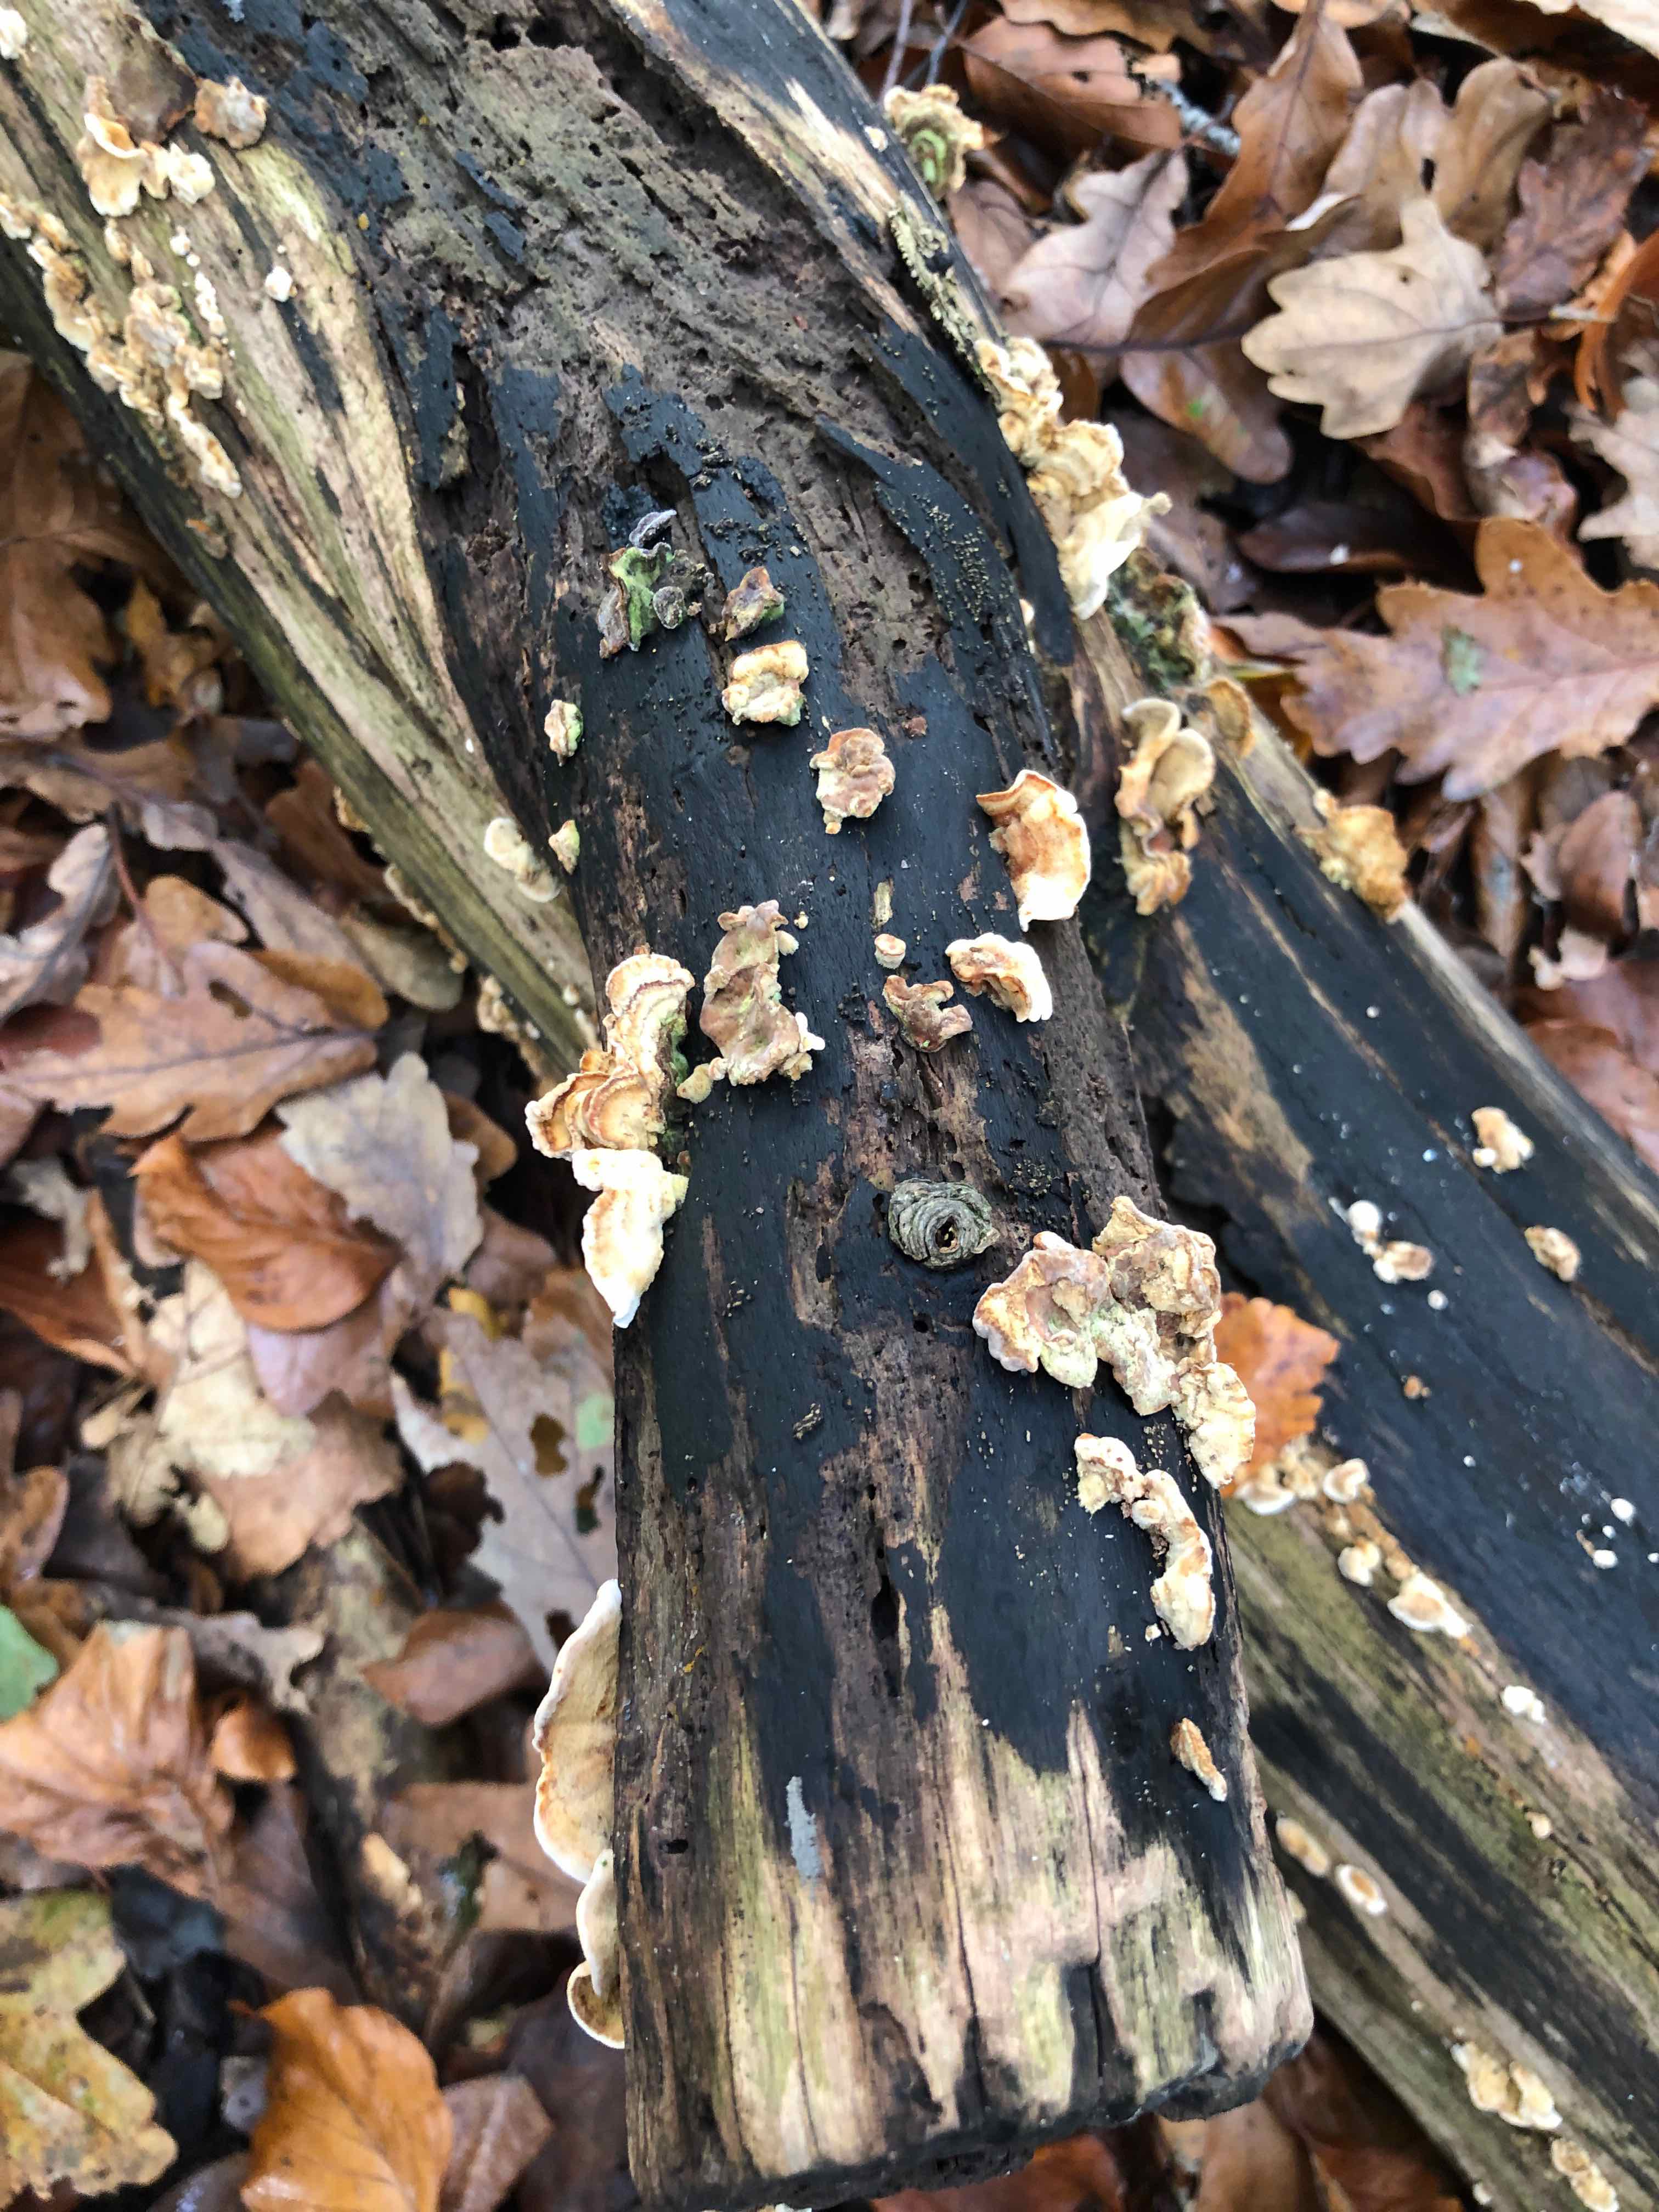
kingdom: Fungi
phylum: Basidiomycota
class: Agaricomycetes
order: Russulales
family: Stereaceae
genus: Stereum
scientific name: Stereum
